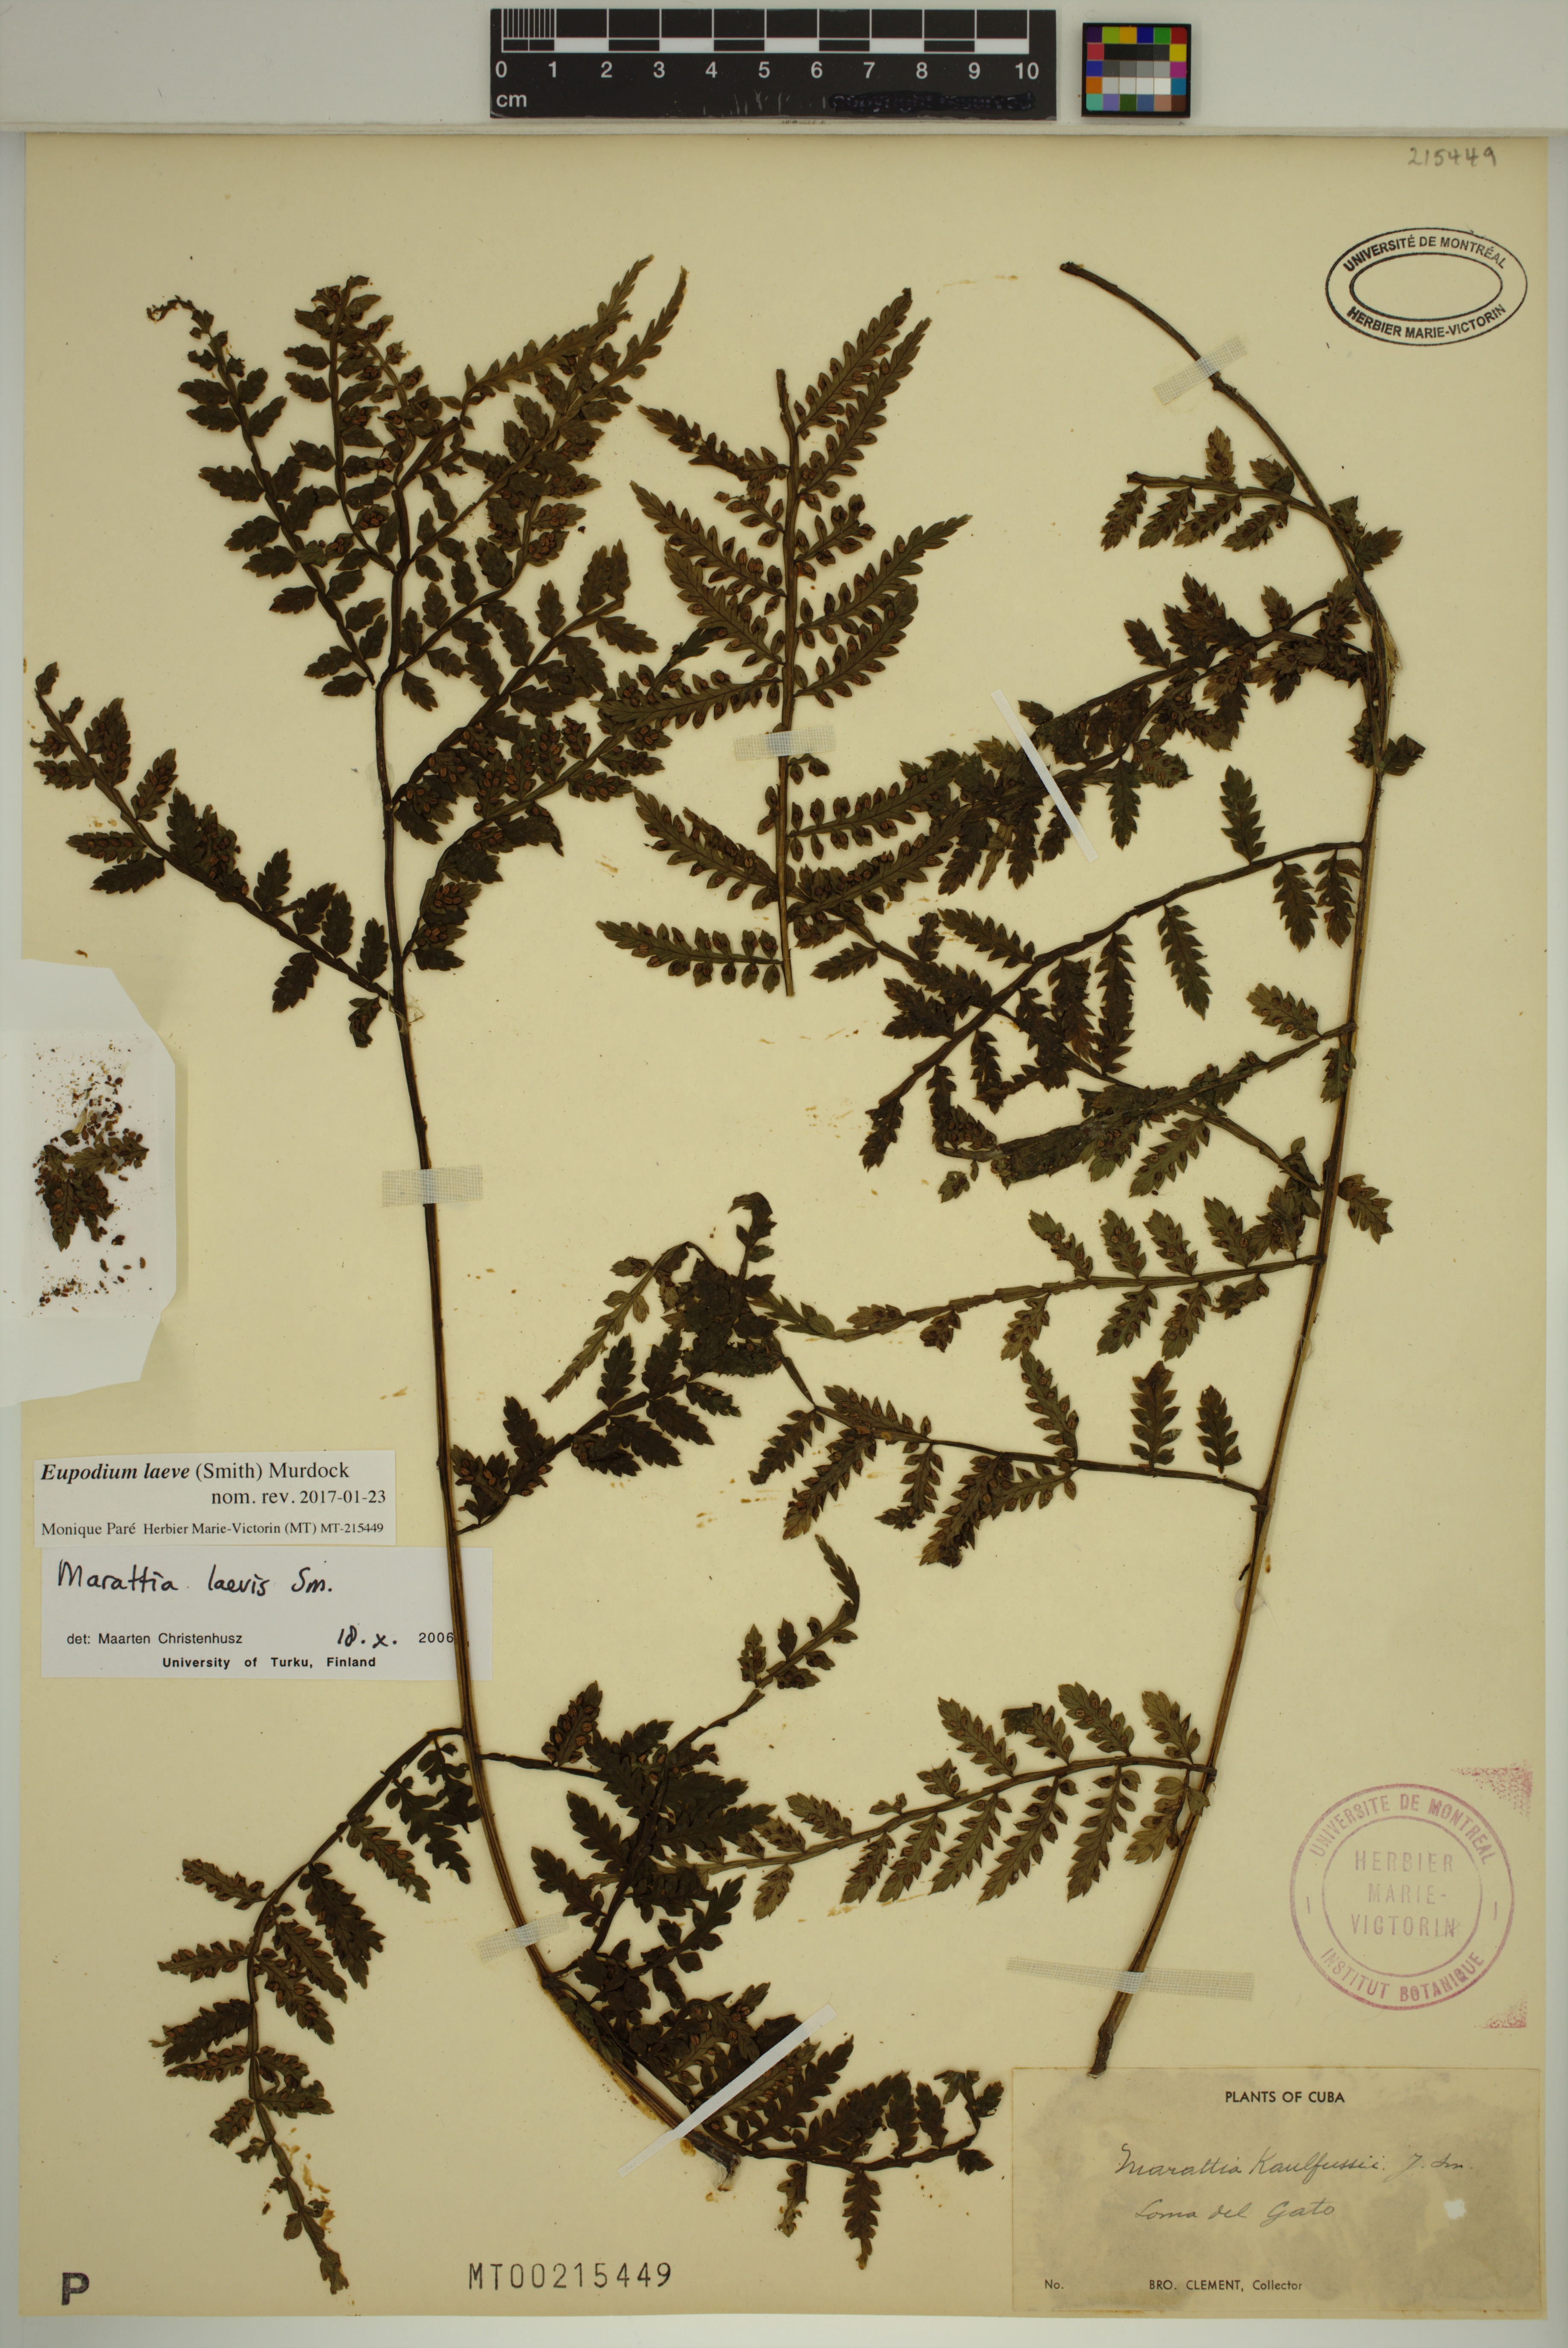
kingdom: Plantae
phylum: Tracheophyta
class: Polypodiopsida
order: Marattiales
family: Marattiaceae
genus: Eupodium
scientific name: Eupodium laeve
